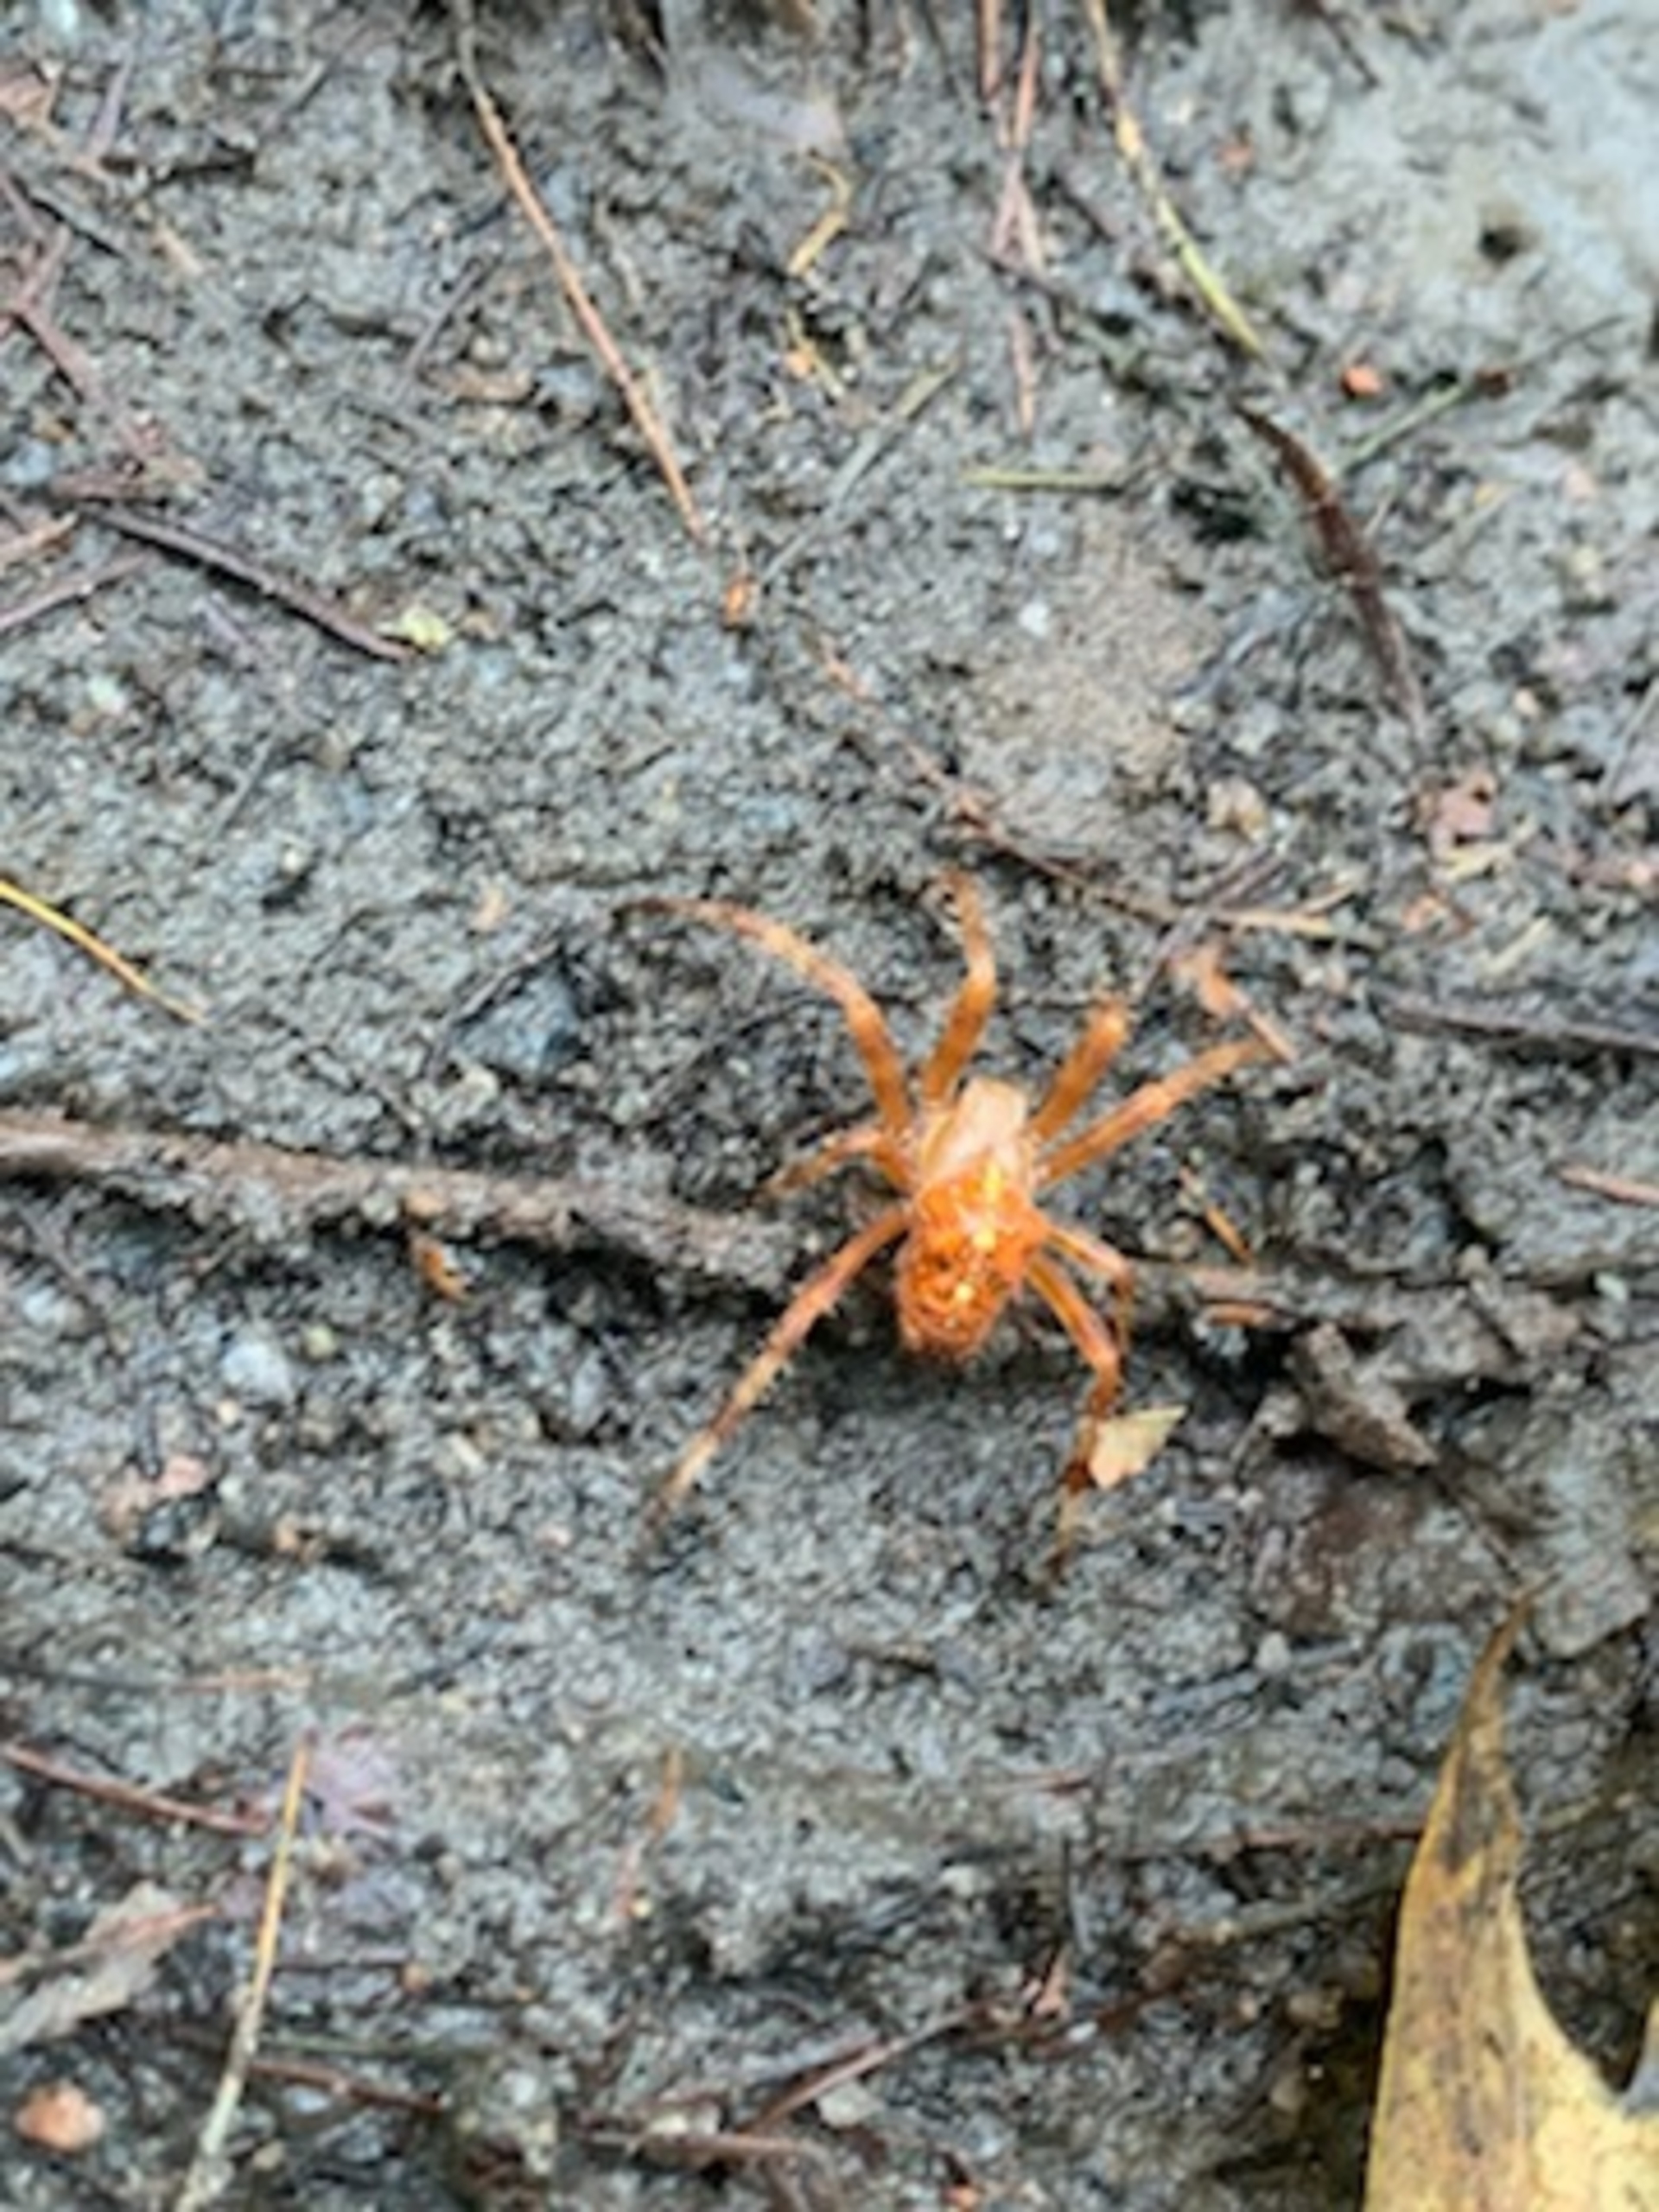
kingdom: Animalia
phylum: Arthropoda
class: Arachnida
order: Araneae
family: Araneidae
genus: Araneus
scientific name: Araneus diadematus
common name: Korsedderkop
